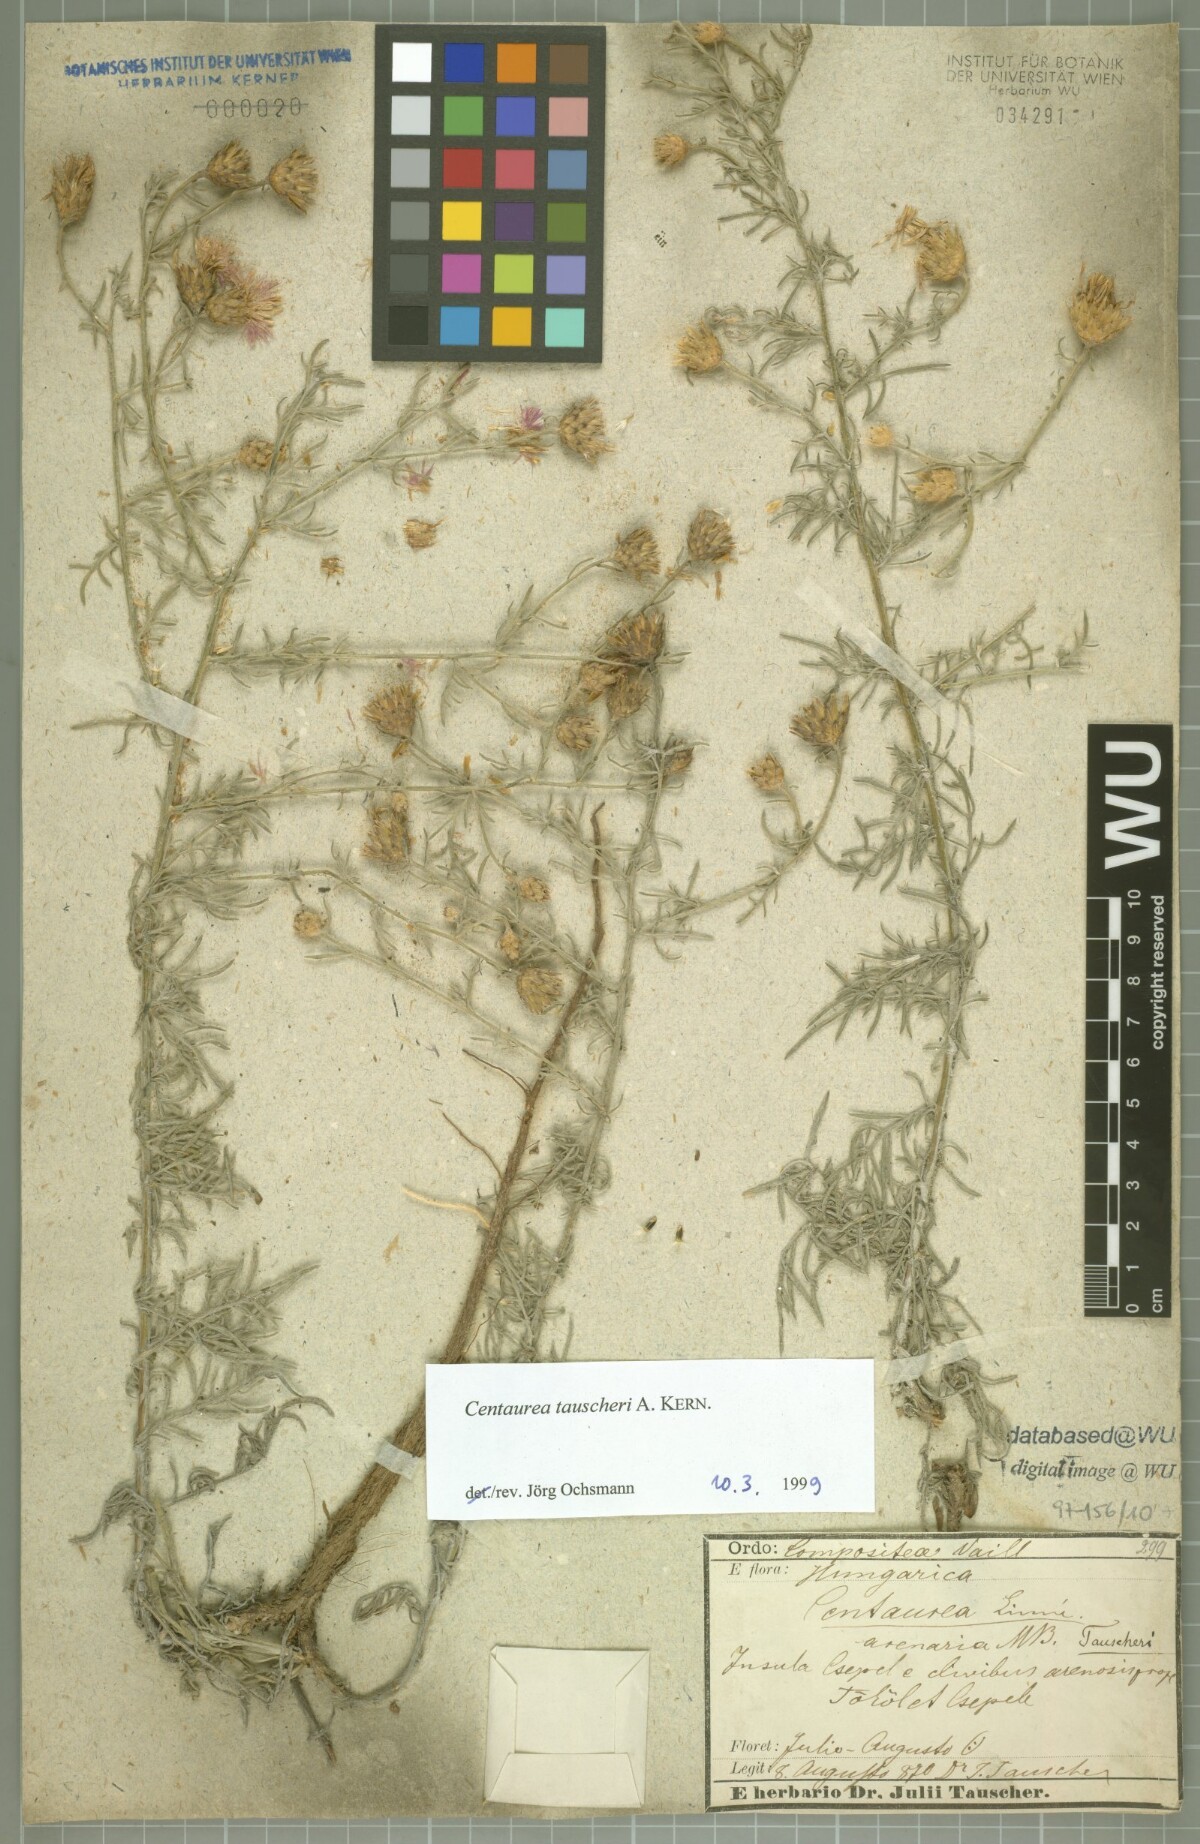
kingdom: Plantae
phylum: Tracheophyta
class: Magnoliopsida
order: Asterales
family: Asteraceae
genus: Centaurea
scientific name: Centaurea tauscheri
